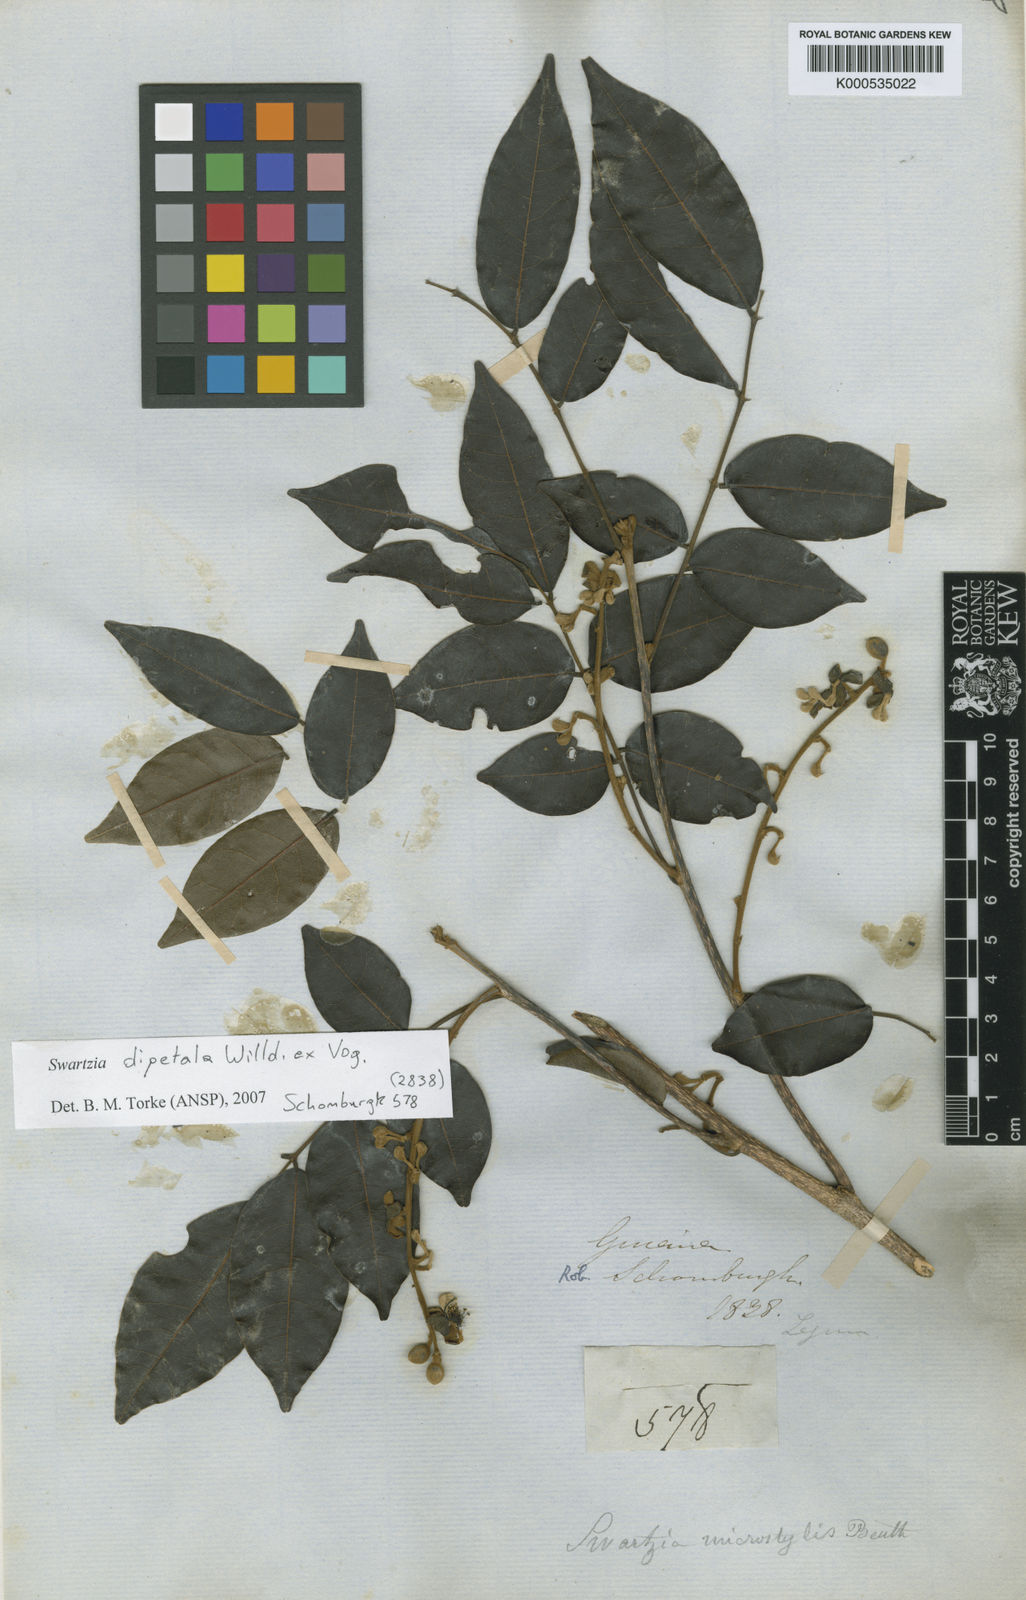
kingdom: Plantae
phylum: Tracheophyta
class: Magnoliopsida
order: Fabales
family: Fabaceae
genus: Swartzia
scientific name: Swartzia dipetala
